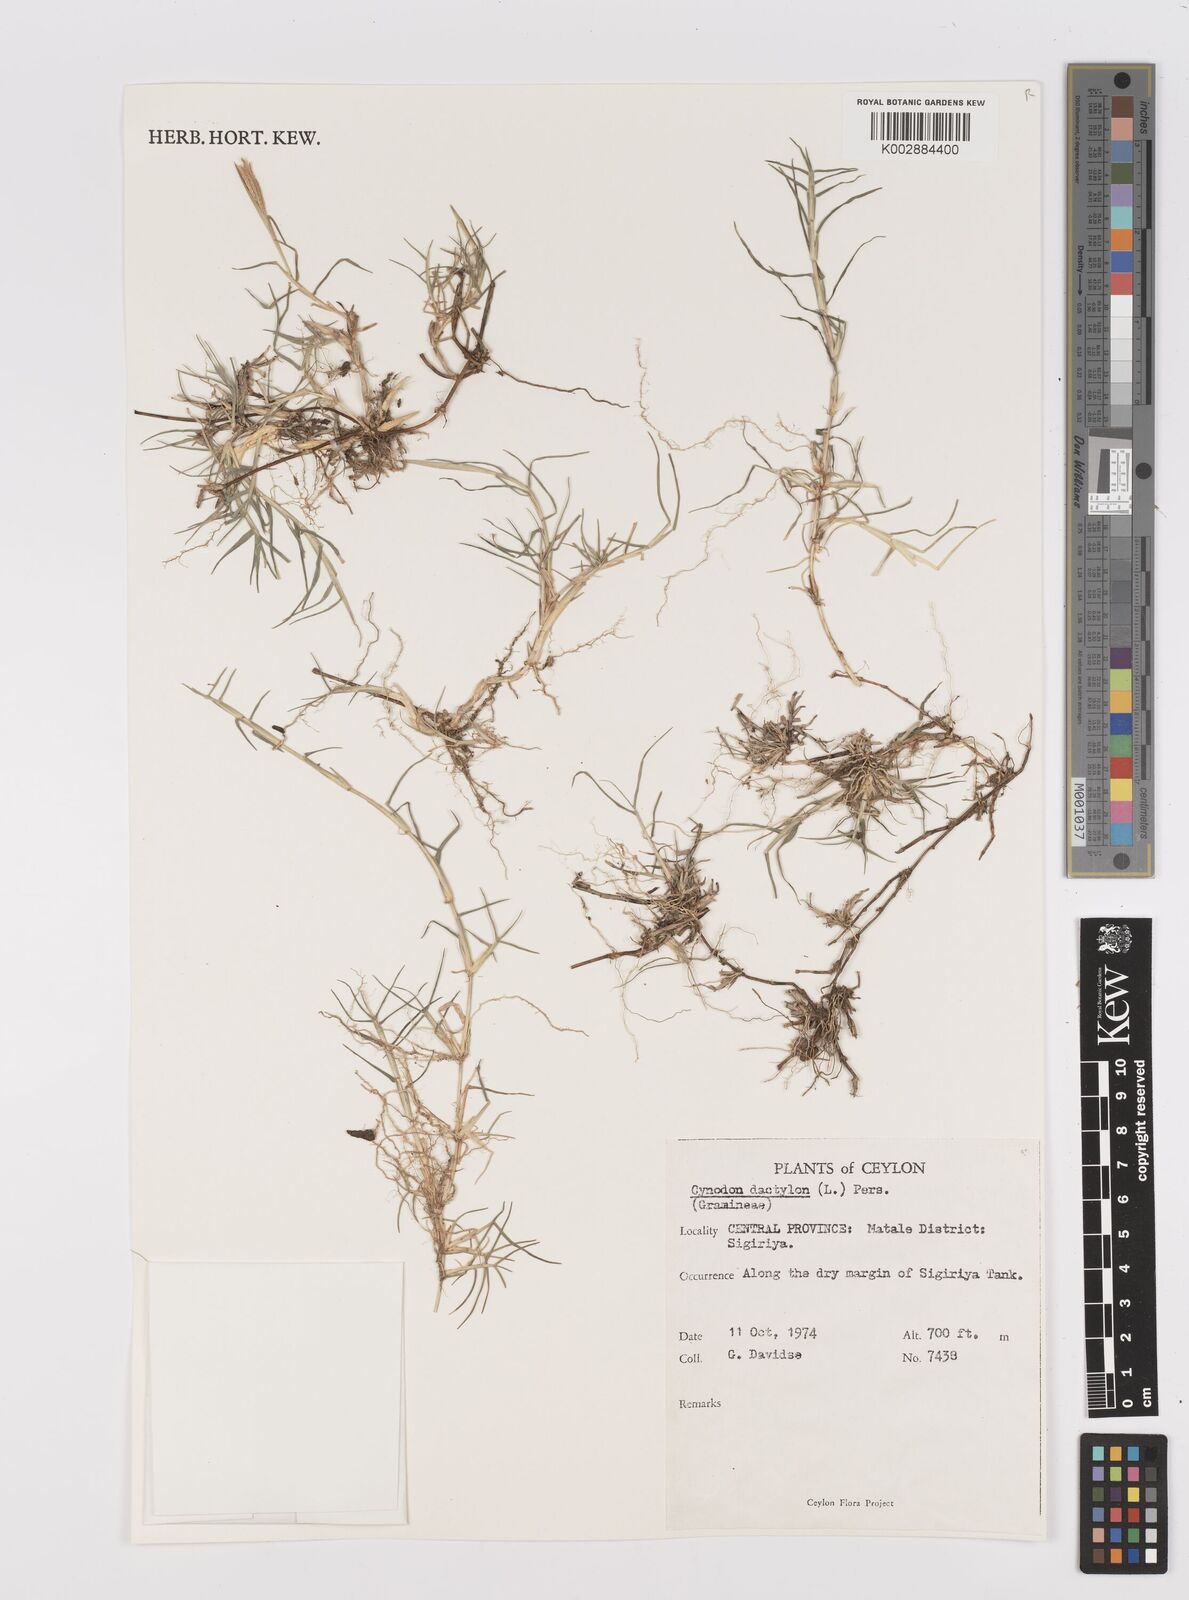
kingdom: Plantae
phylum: Tracheophyta
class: Liliopsida
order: Poales
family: Poaceae
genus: Cynodon
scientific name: Cynodon dactylon
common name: Bermuda grass
